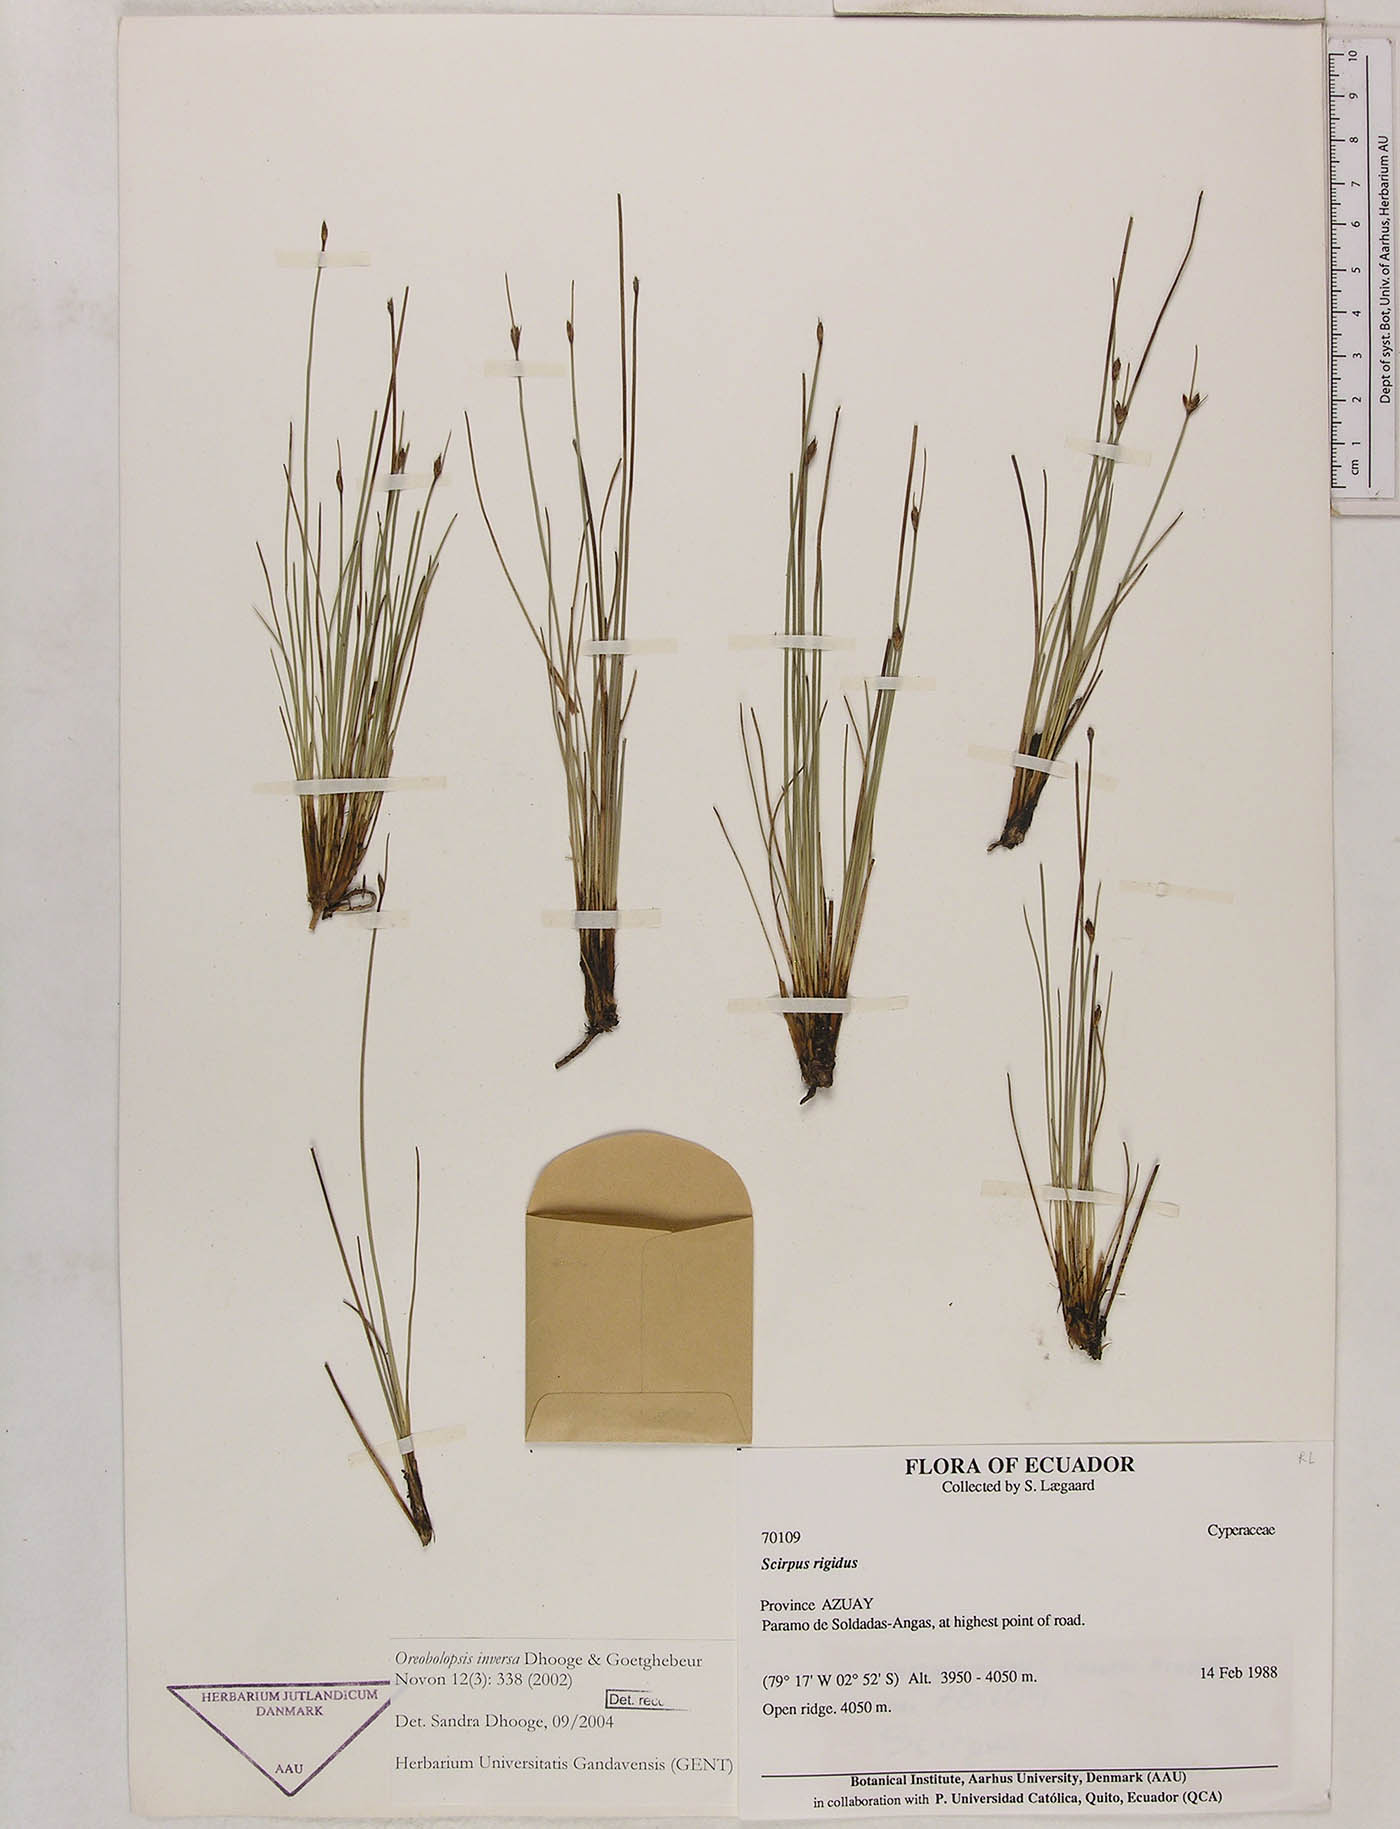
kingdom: Plantae
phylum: Tracheophyta
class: Liliopsida
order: Poales
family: Cyperaceae
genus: Trichophorum
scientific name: Trichophorum inversum
